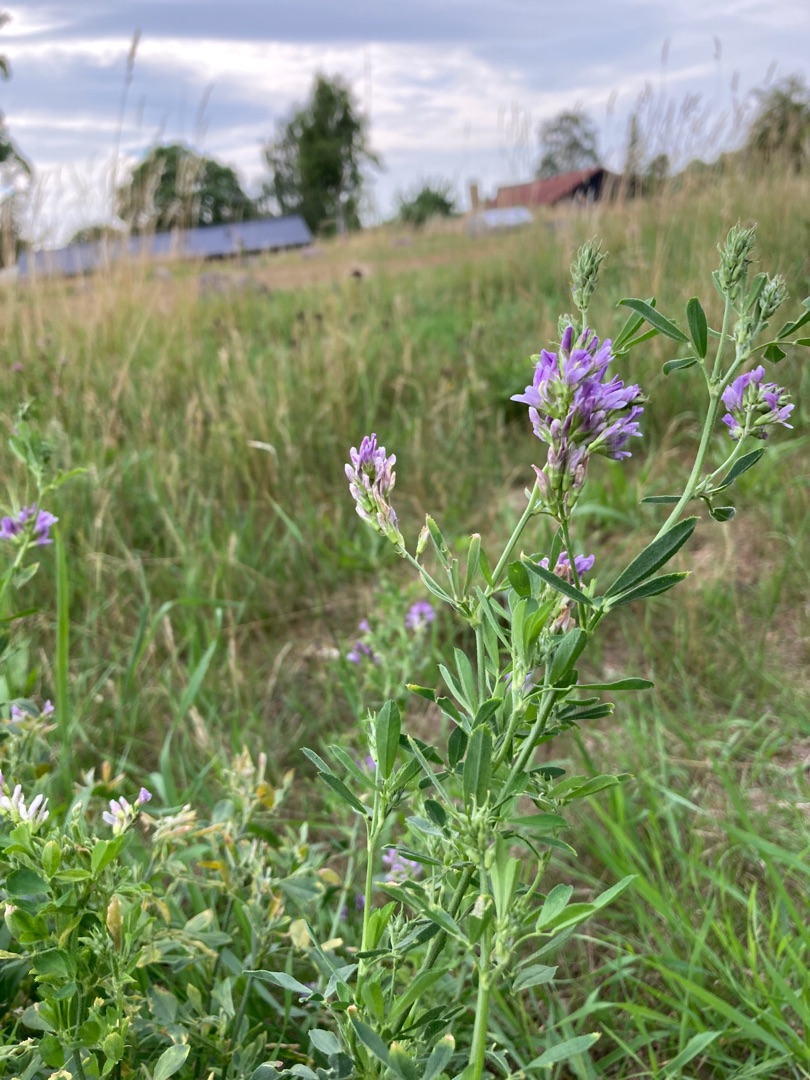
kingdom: Plantae
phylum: Tracheophyta
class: Magnoliopsida
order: Fabales
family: Fabaceae
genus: Medicago
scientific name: Medicago sativa
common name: Lucerne
